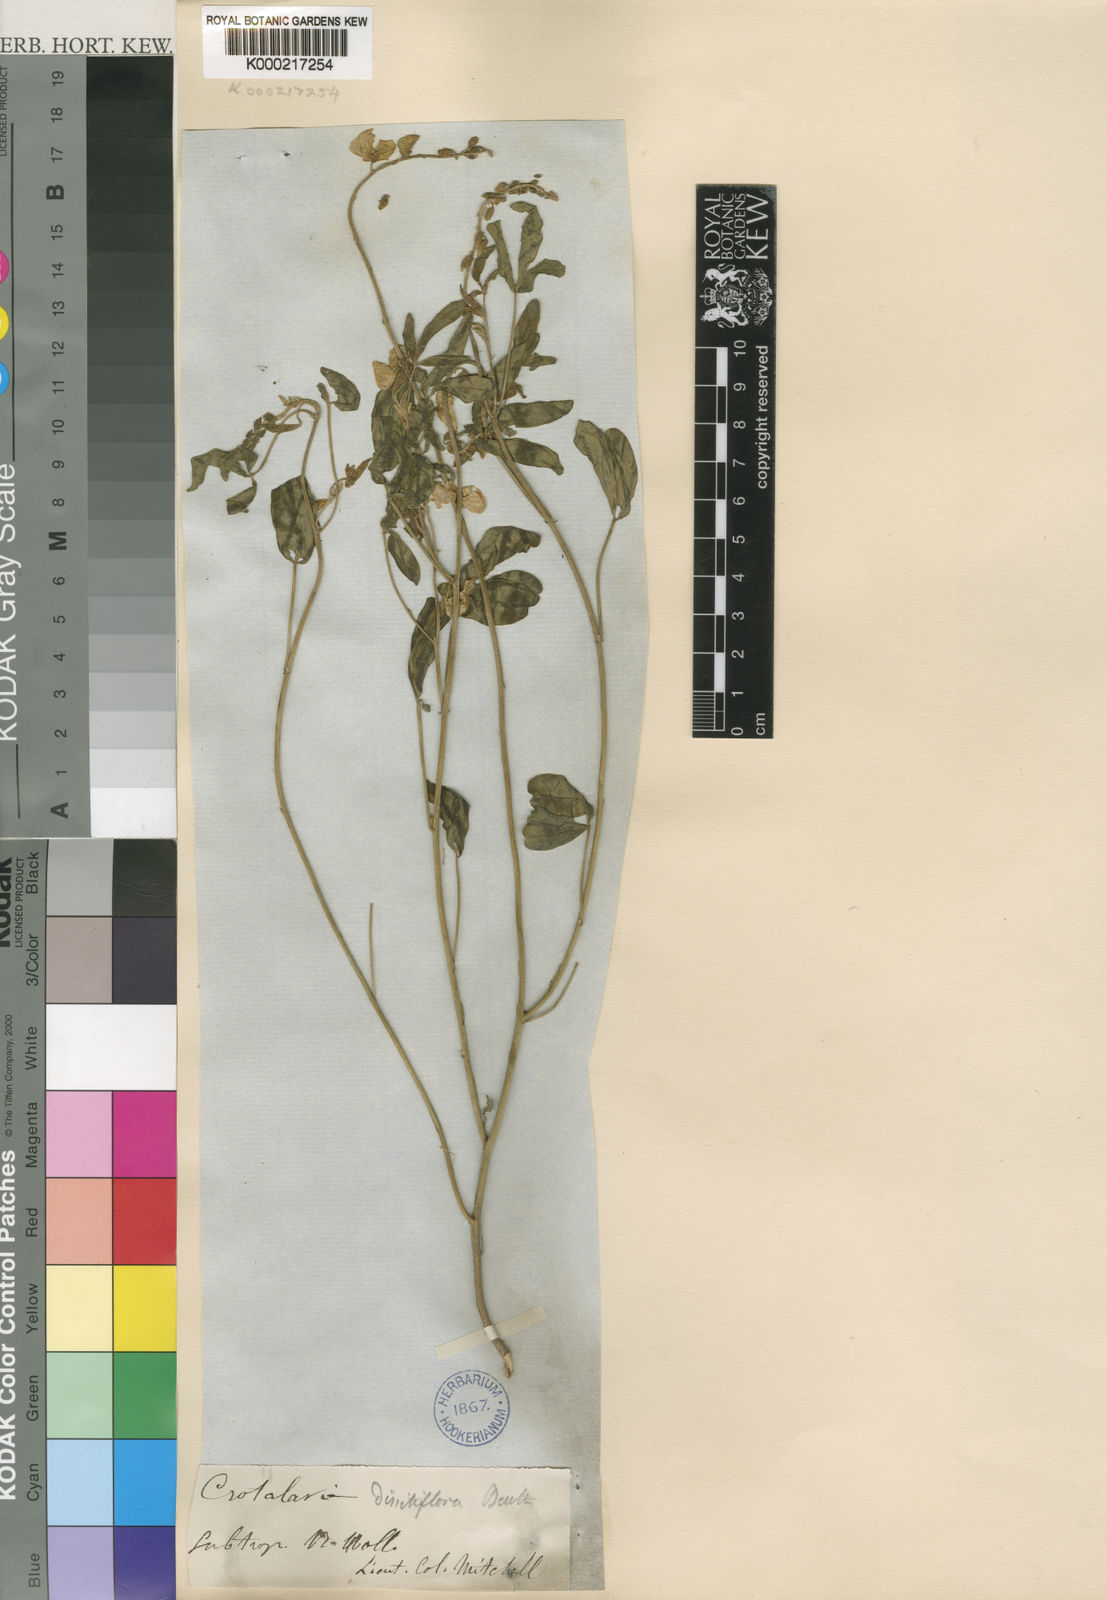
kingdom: Plantae
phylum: Tracheophyta
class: Magnoliopsida
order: Fabales
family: Fabaceae
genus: Crotalaria
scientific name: Crotalaria dissitiflora
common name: Grey rattlepod
